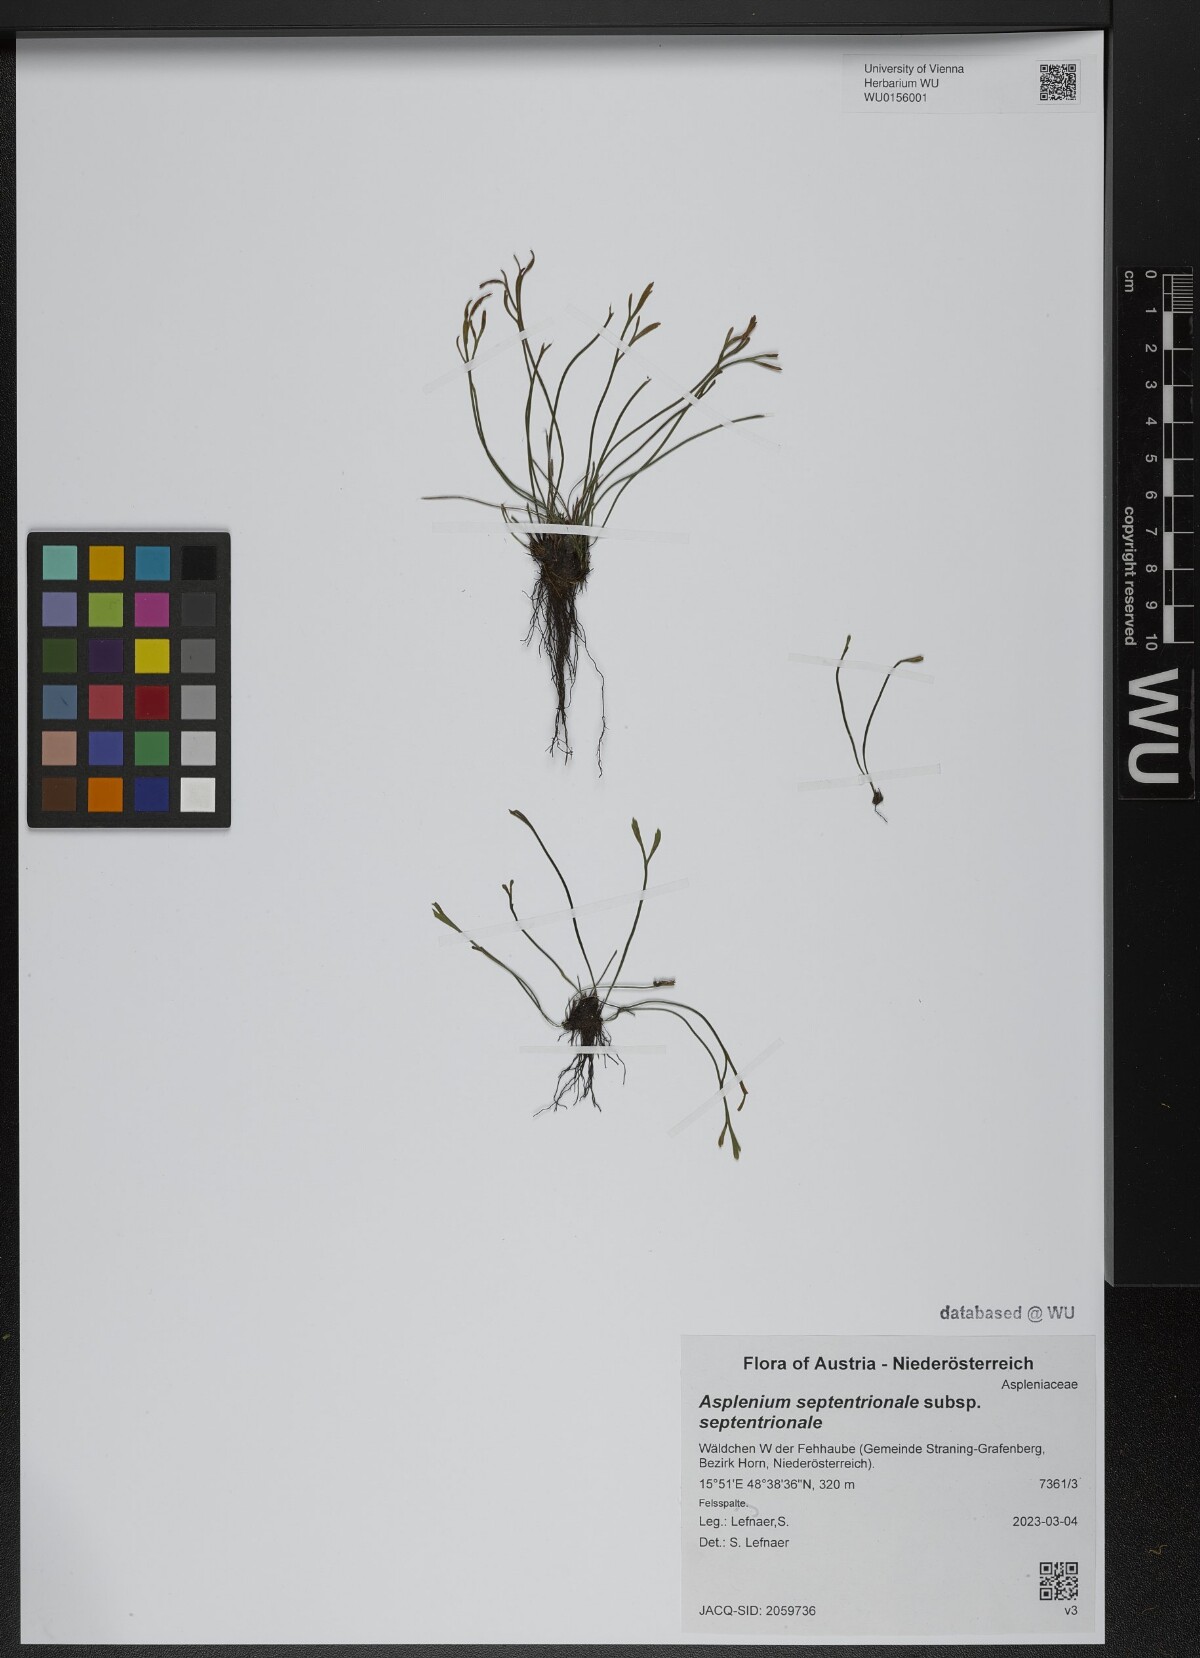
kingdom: Plantae
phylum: Tracheophyta
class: Polypodiopsida
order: Polypodiales
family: Aspleniaceae
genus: Asplenium
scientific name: Asplenium septentrionale
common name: Forked spleenwort
